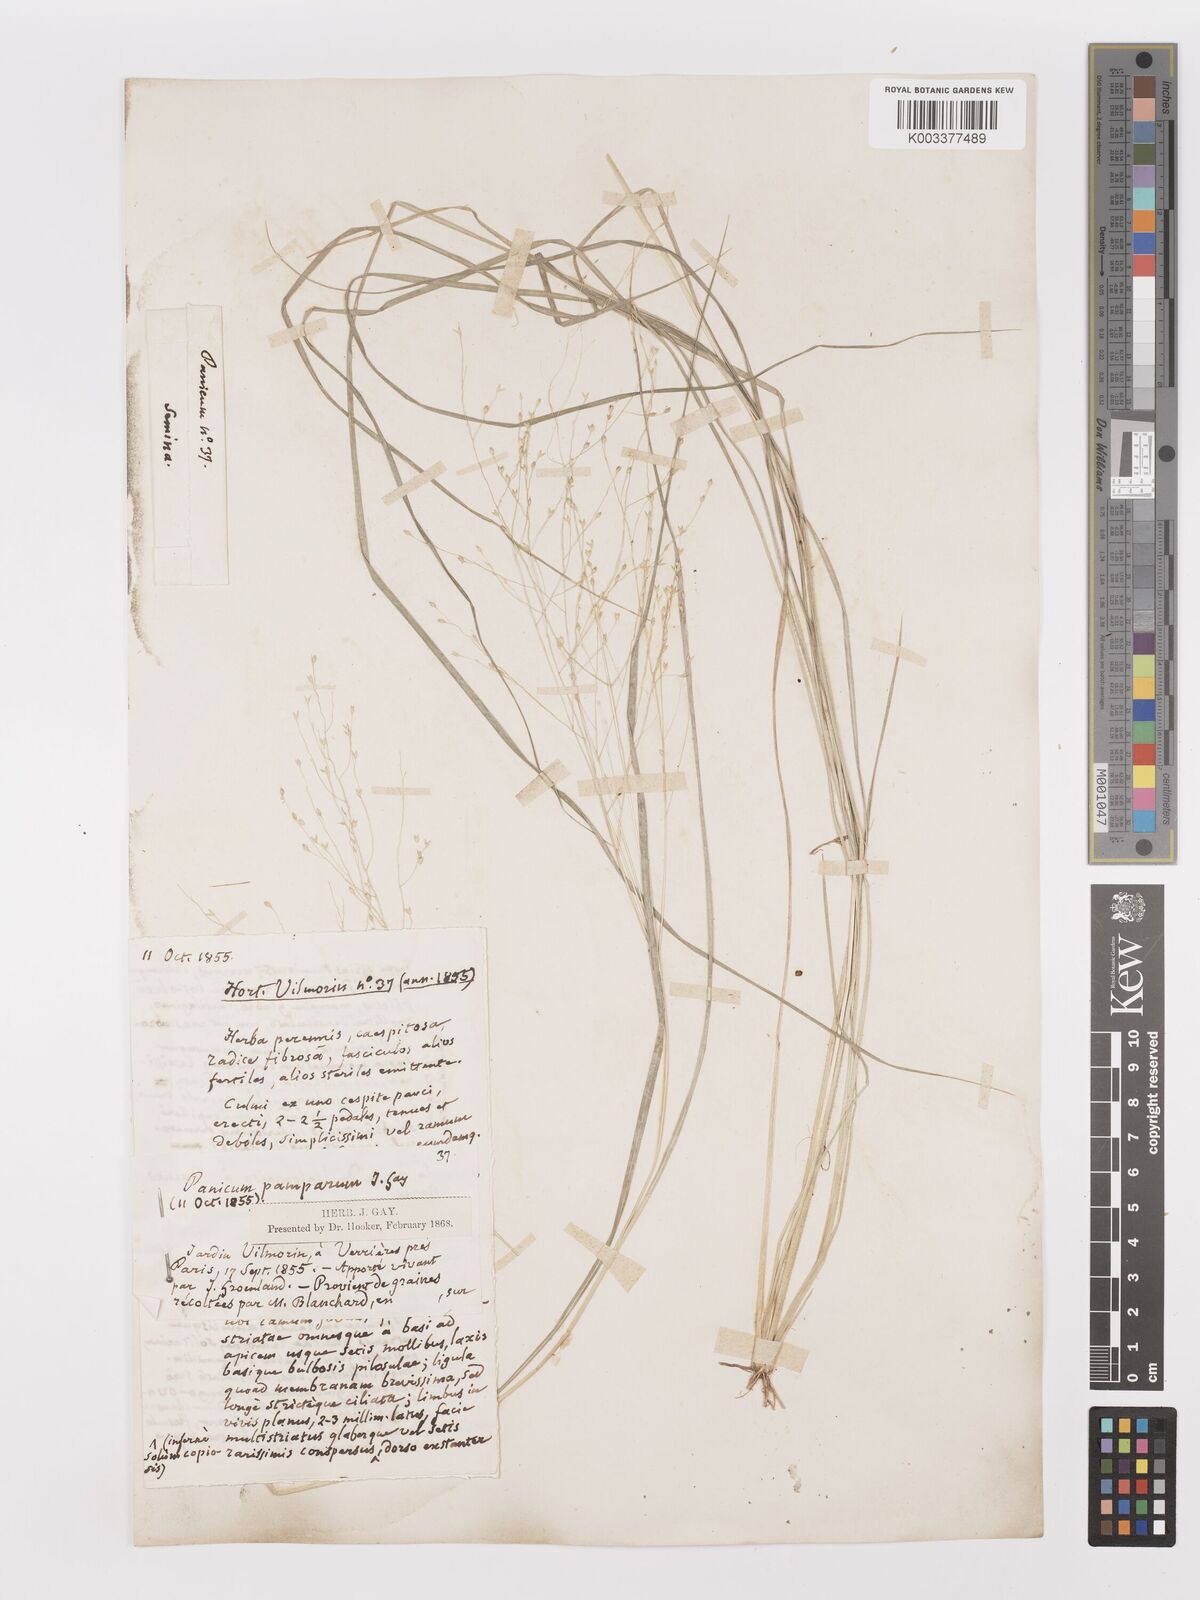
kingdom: Plantae
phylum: Tracheophyta
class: Liliopsida
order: Poales
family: Poaceae
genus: Panicum
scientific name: Panicum bergii
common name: Berg's panicgrass
